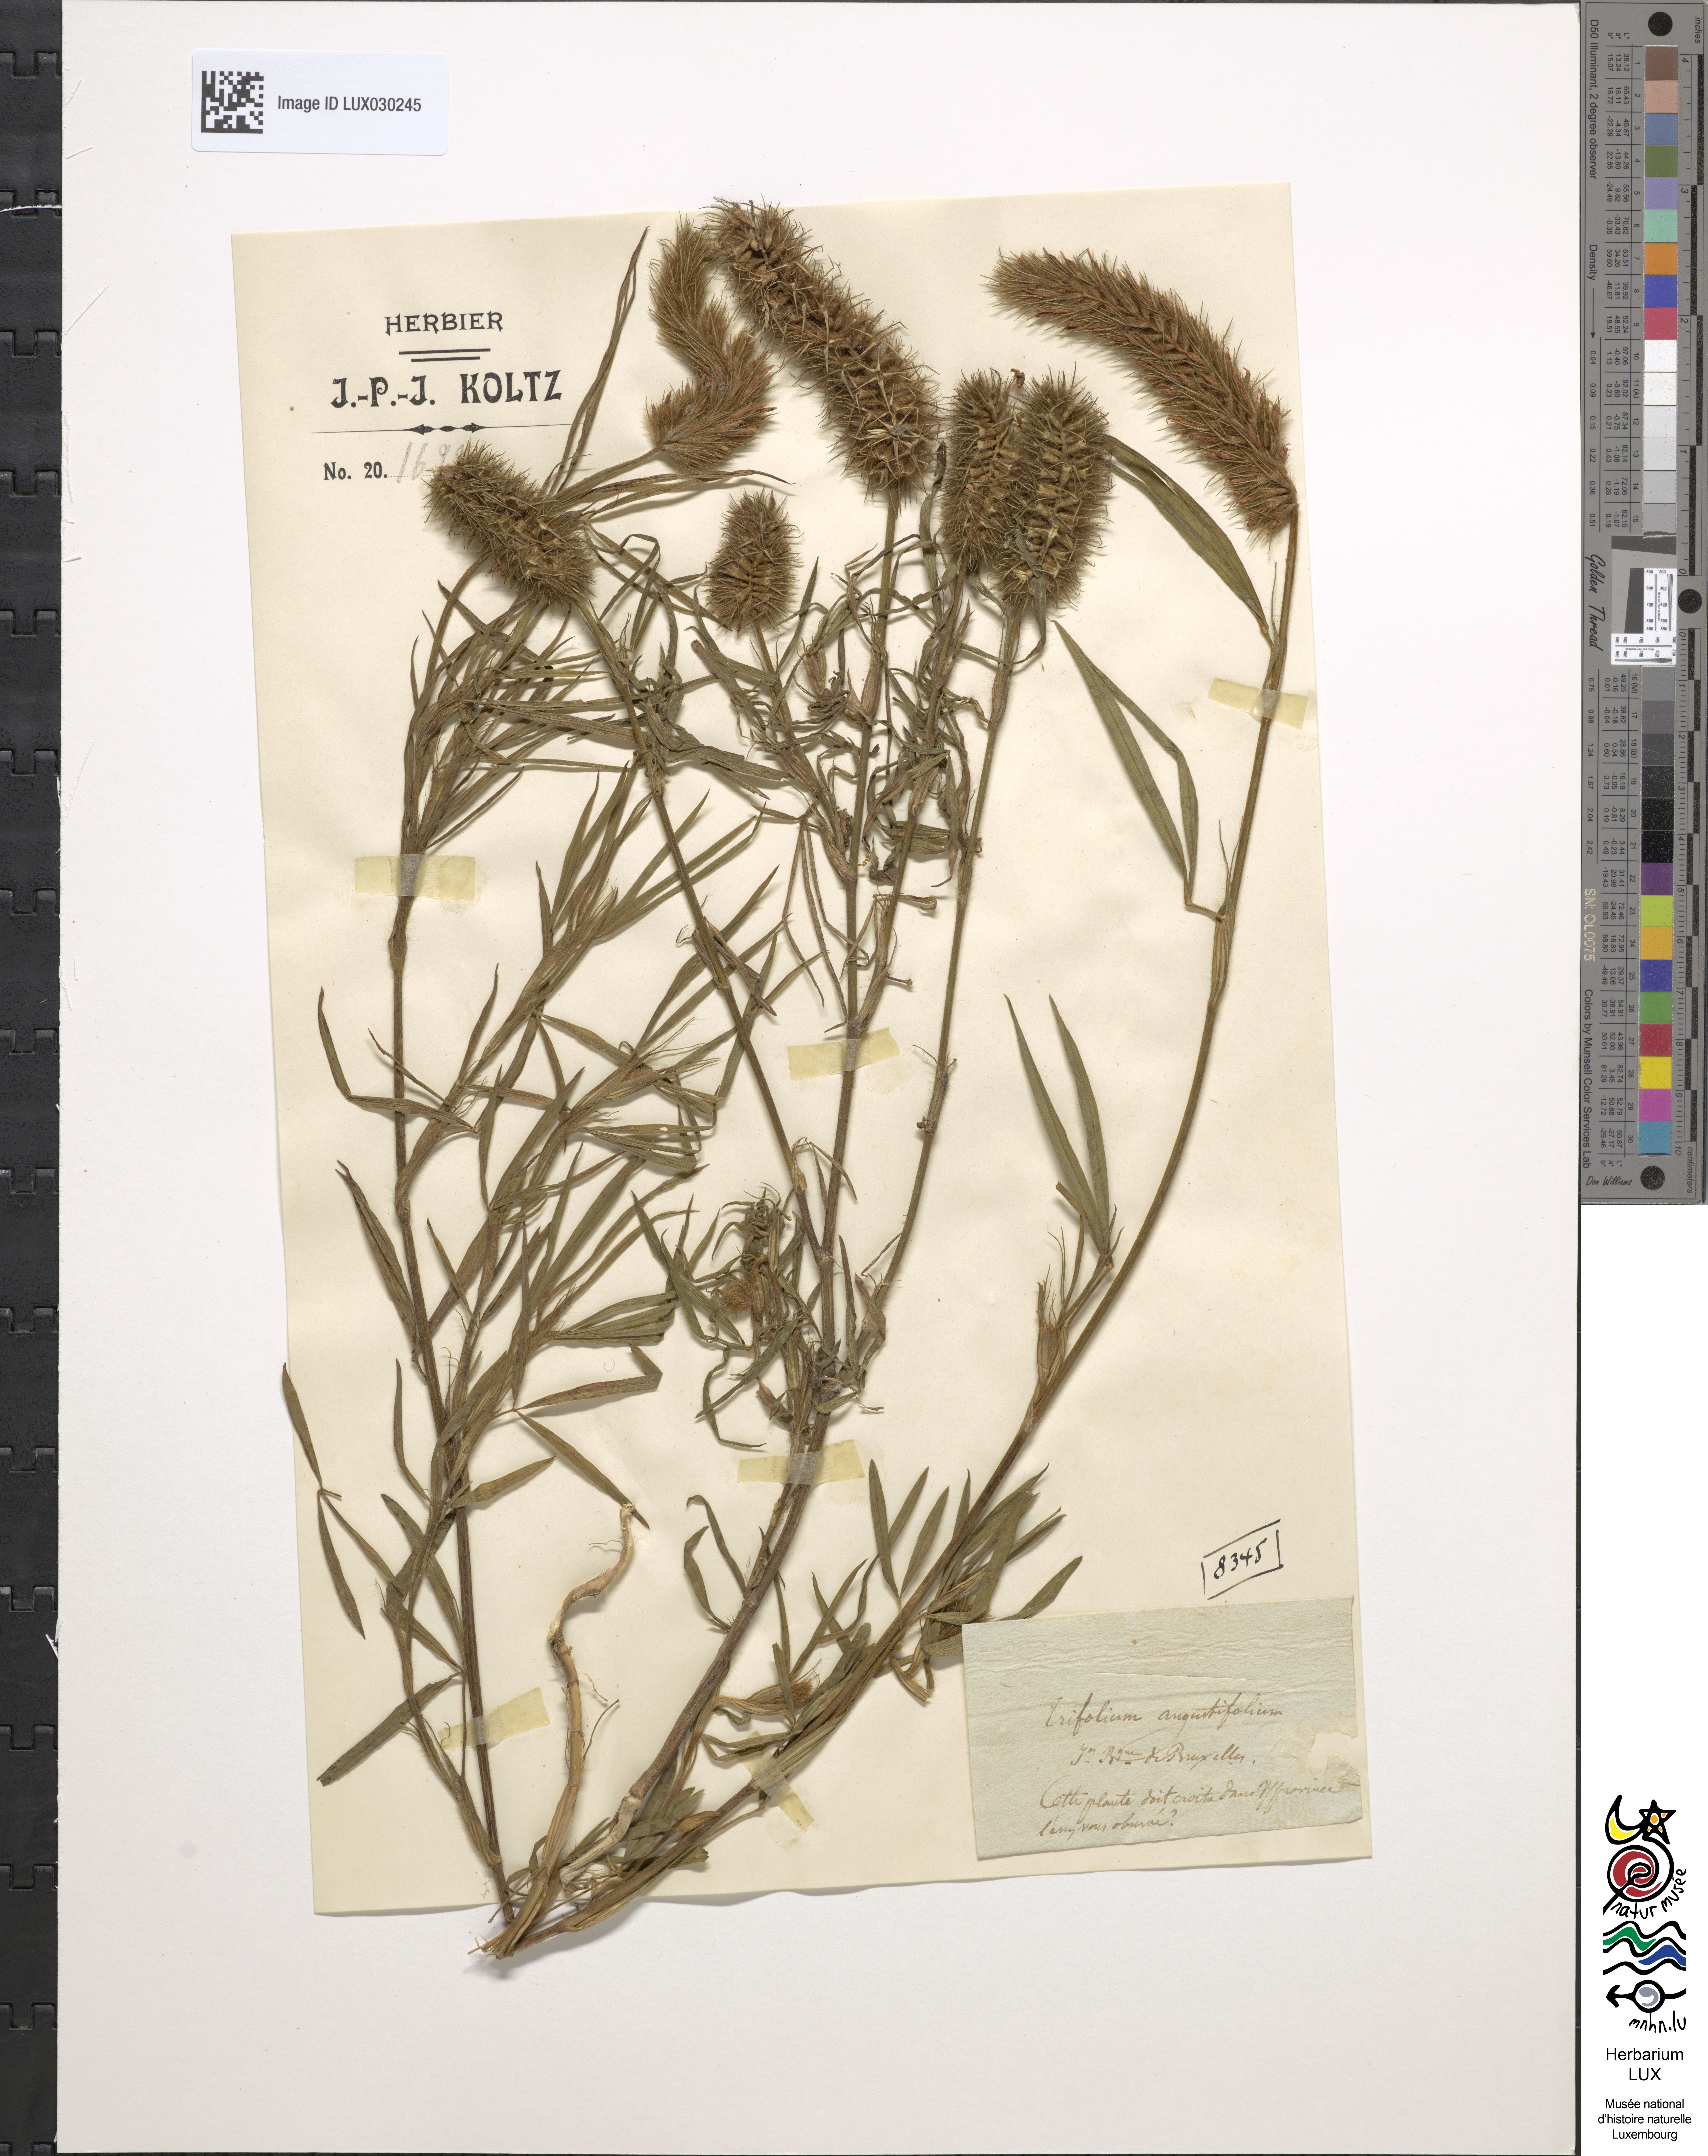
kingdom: Plantae
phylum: Tracheophyta
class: Magnoliopsida
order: Fabales
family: Fabaceae
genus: Trifolium
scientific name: Trifolium angustifolium
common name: Narrow clover
